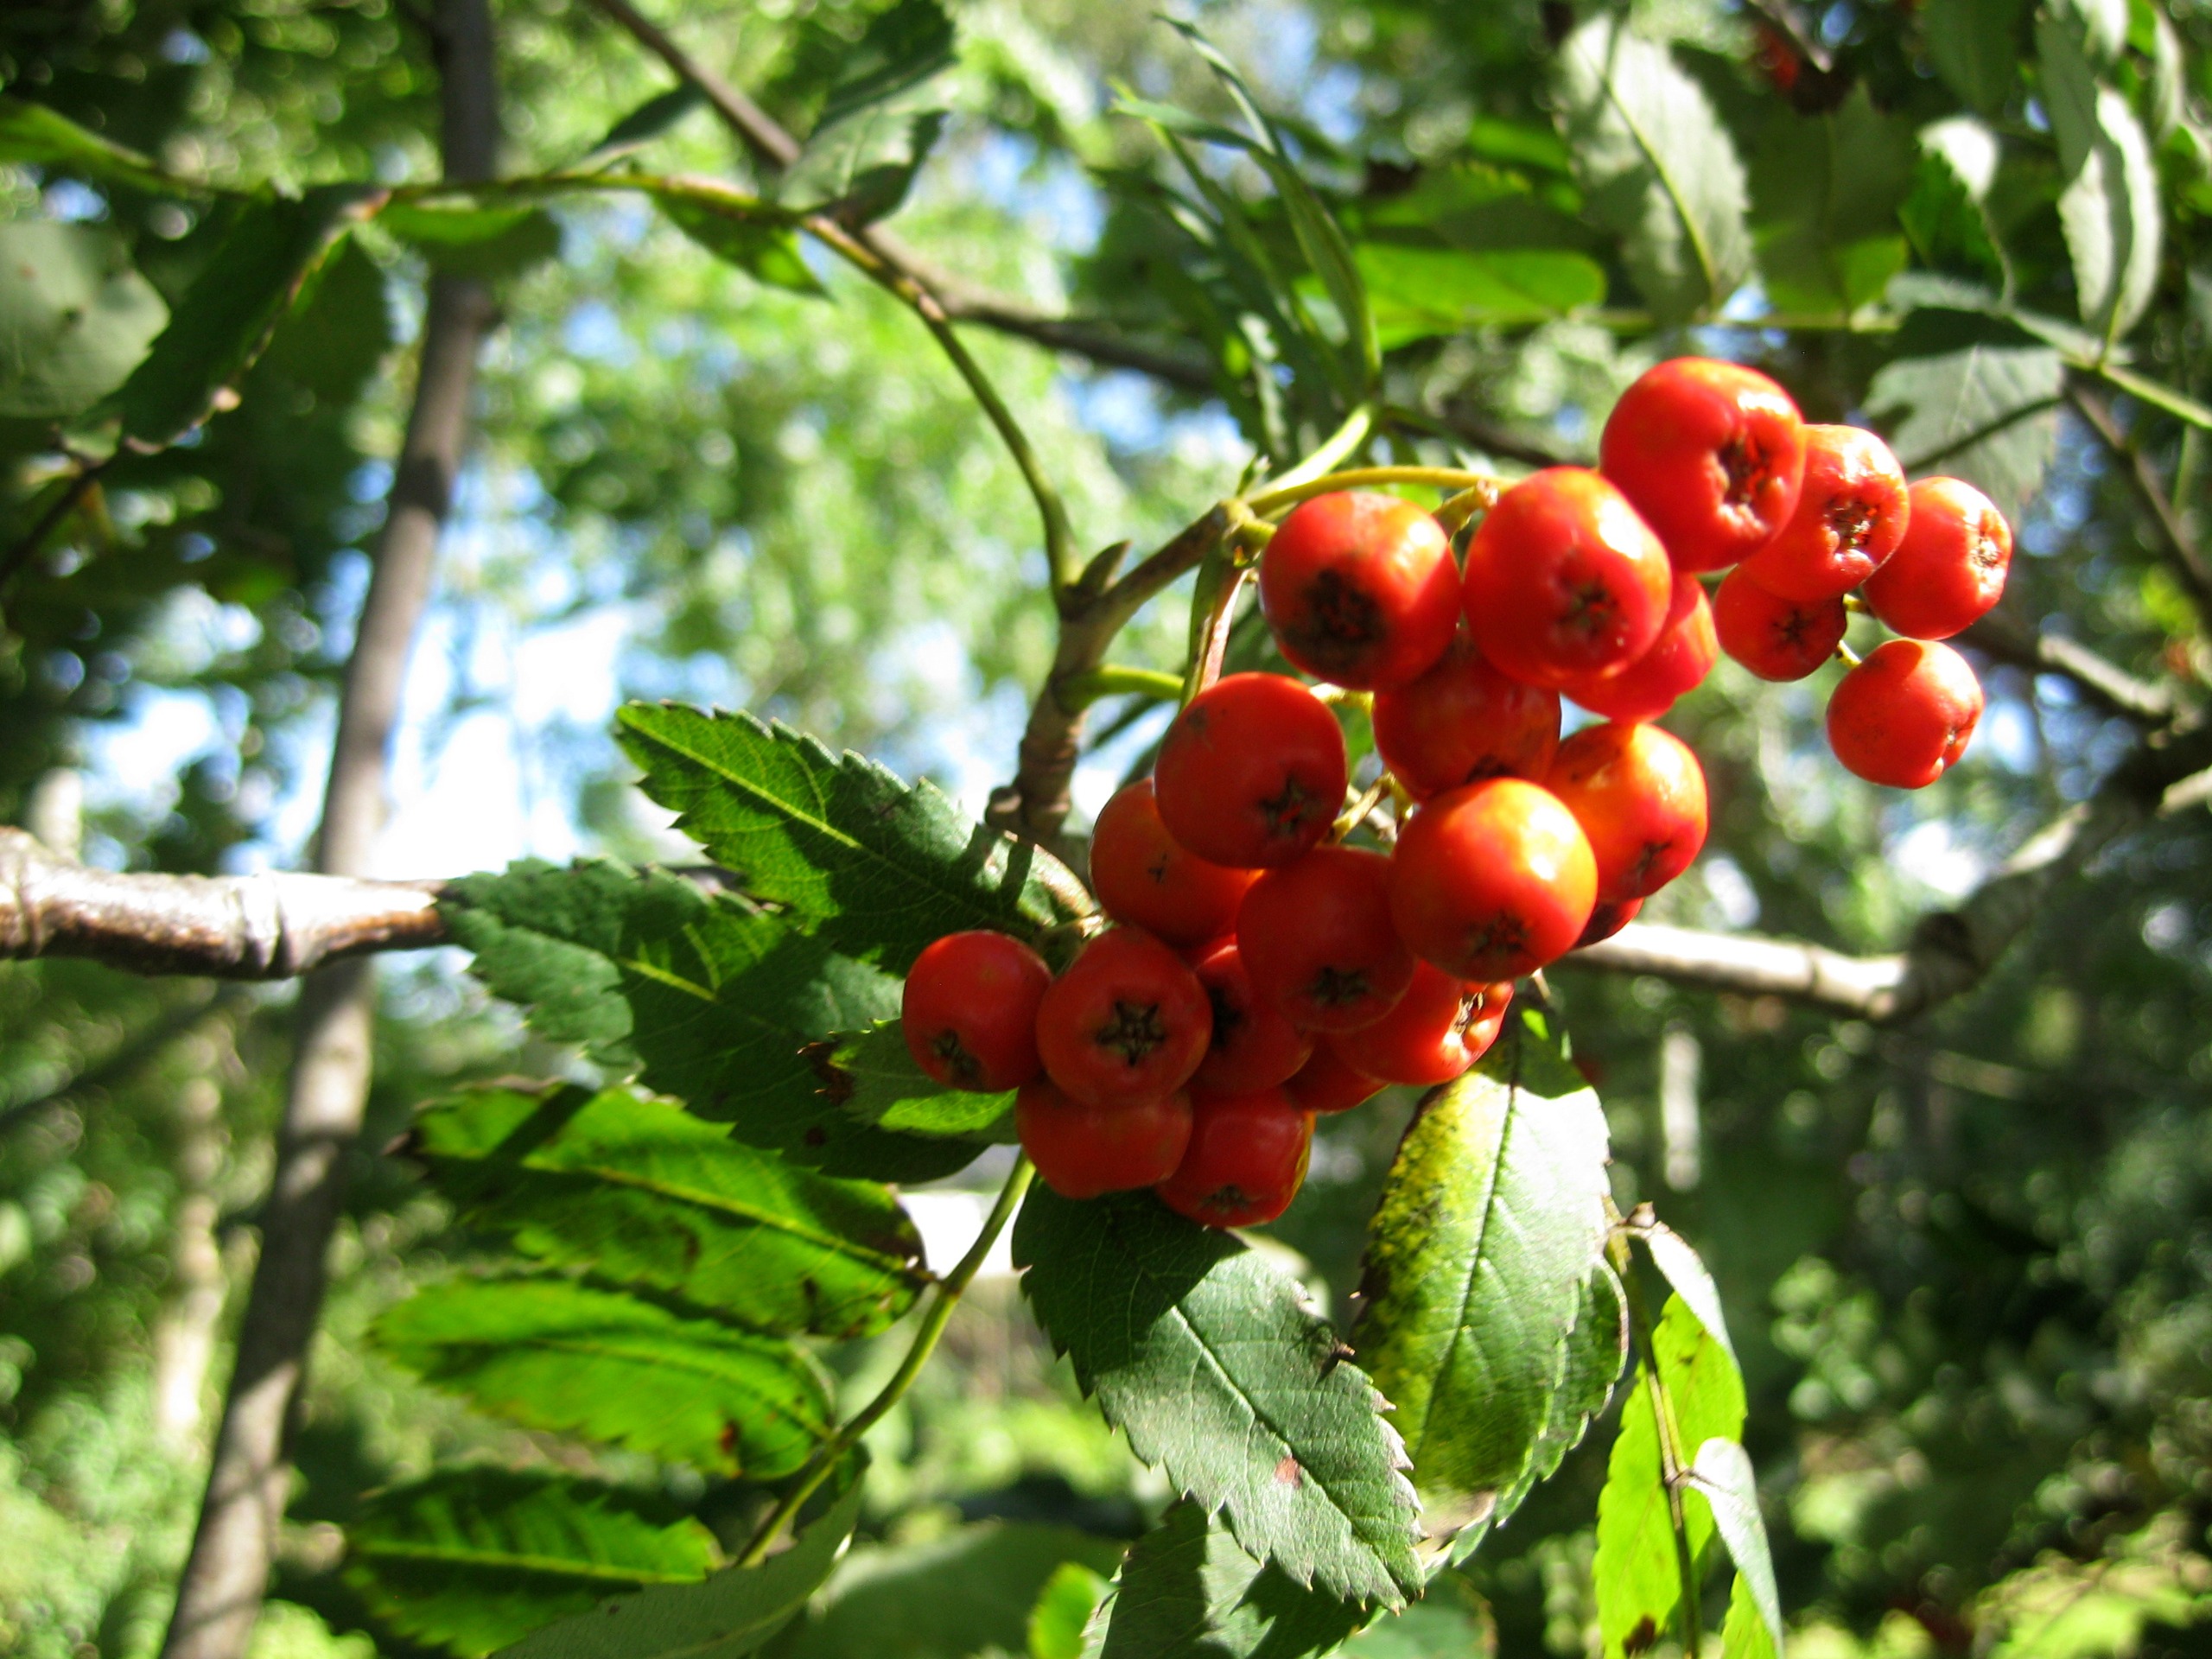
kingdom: Plantae
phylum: Tracheophyta
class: Magnoliopsida
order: Rosales
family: Rosaceae
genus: Sorbus
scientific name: Sorbus aucuparia
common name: Almindelig røn
